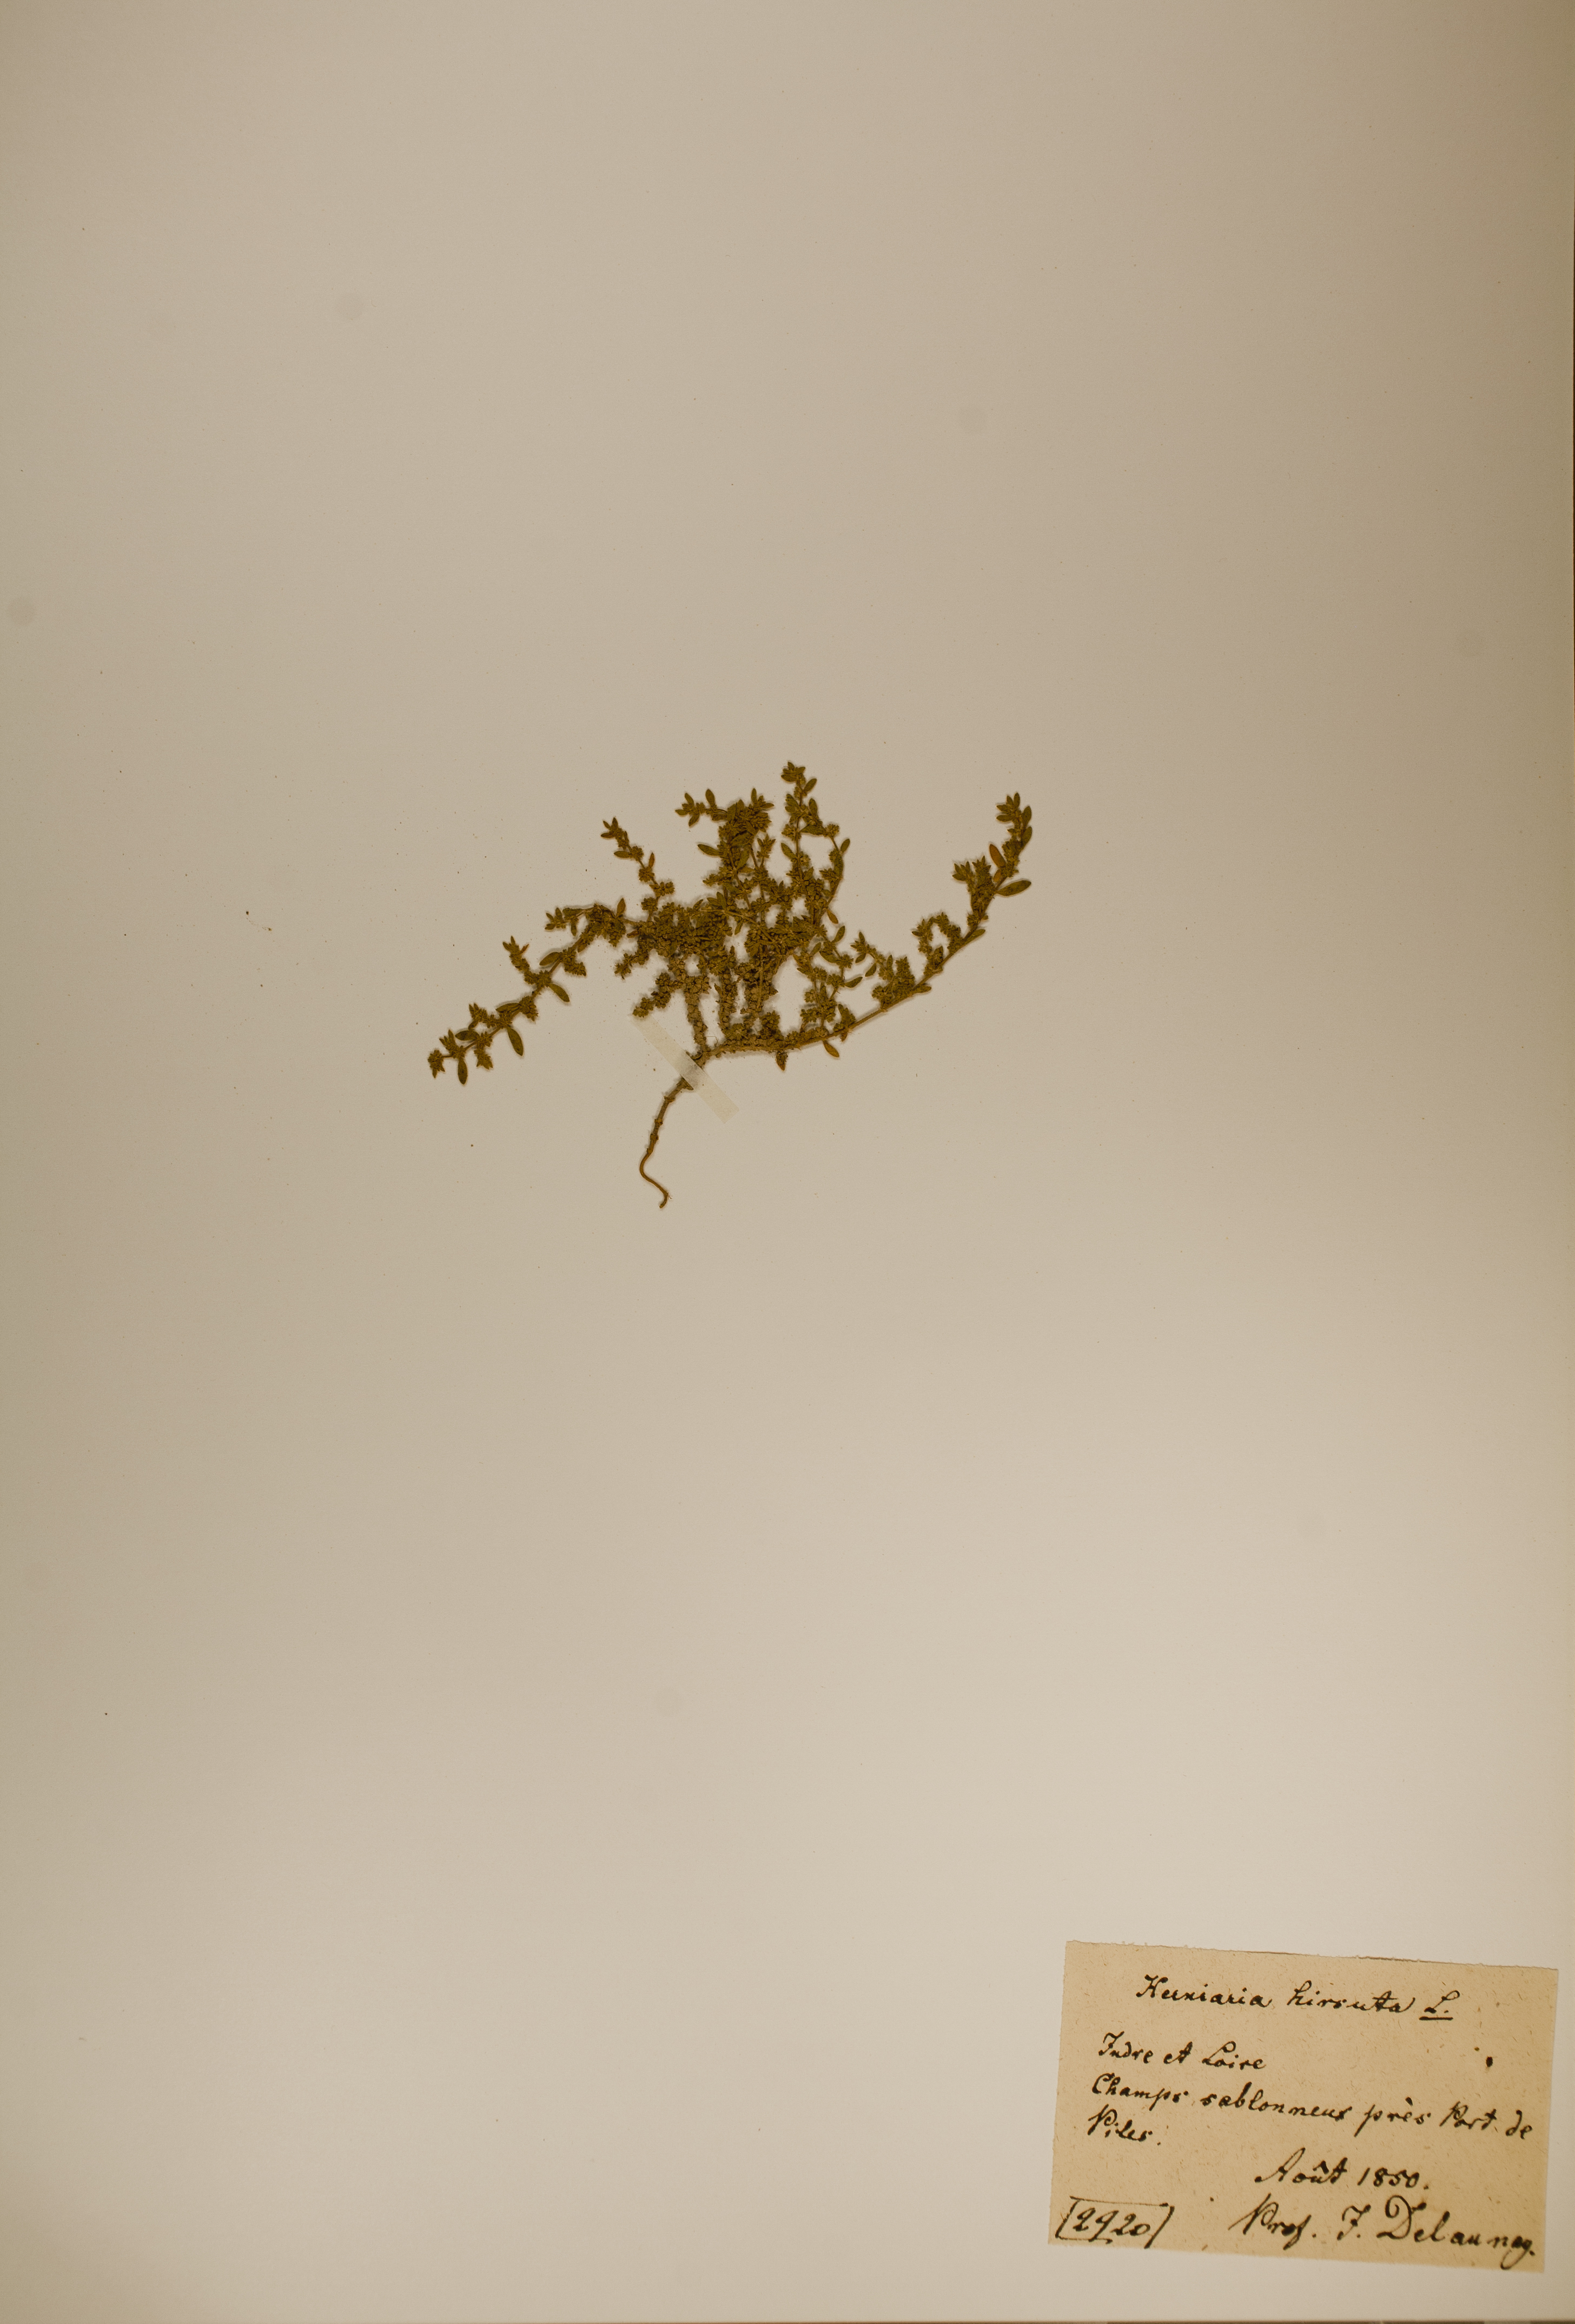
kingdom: Plantae
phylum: Tracheophyta
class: Magnoliopsida
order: Caryophyllales
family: Caryophyllaceae
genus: Herniaria
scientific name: Herniaria hirsuta
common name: Hairy rupturewort
